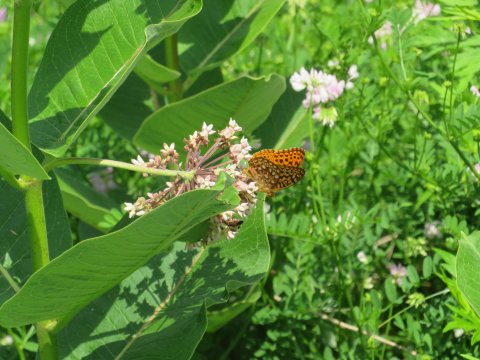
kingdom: Animalia
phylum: Arthropoda
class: Insecta
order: Lepidoptera
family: Nymphalidae
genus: Speyeria
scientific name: Speyeria cybele
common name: Great Spangled Fritillary
